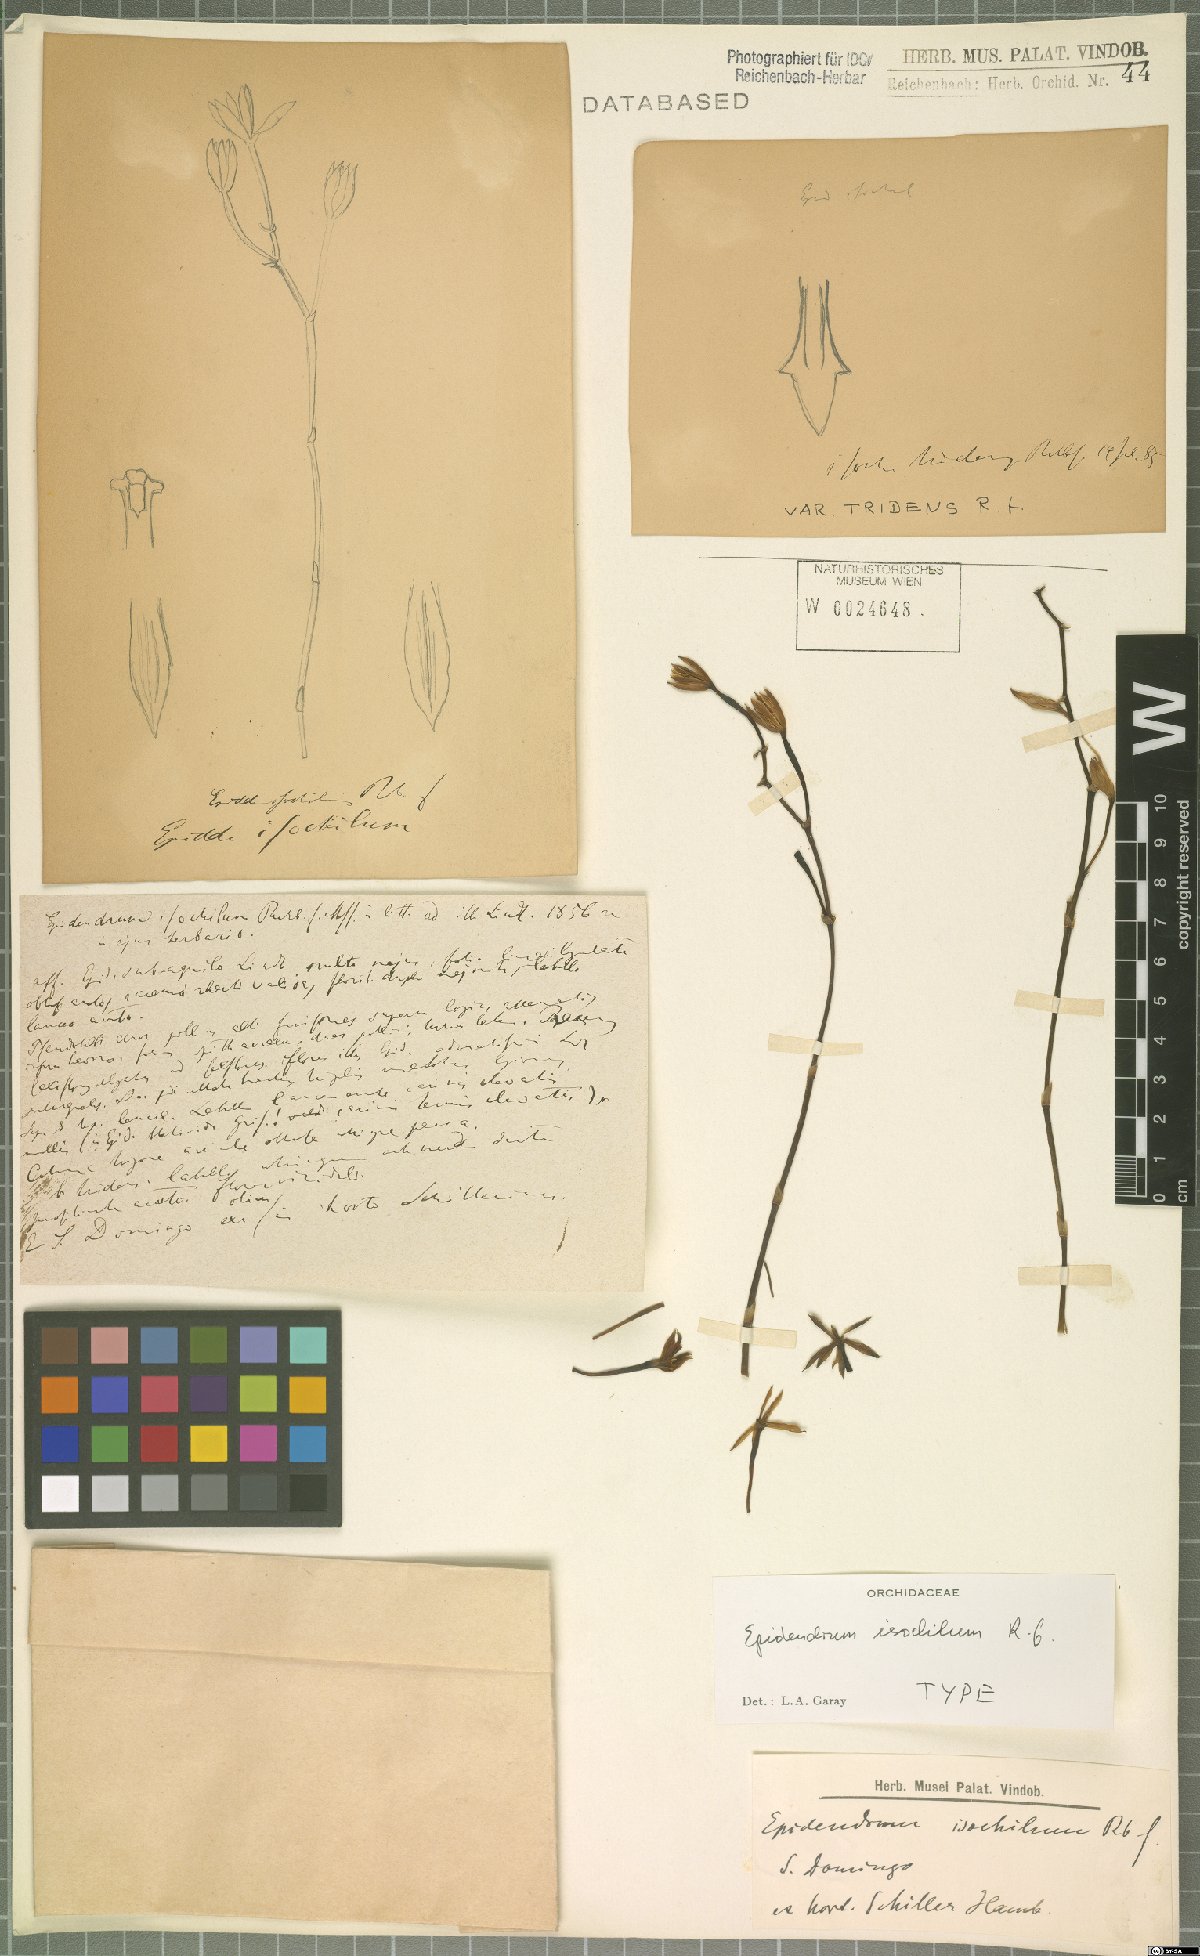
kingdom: Plantae
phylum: Tracheophyta
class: Liliopsida
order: Asparagales
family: Orchidaceae
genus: Encyclia
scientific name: Encyclia isochila
